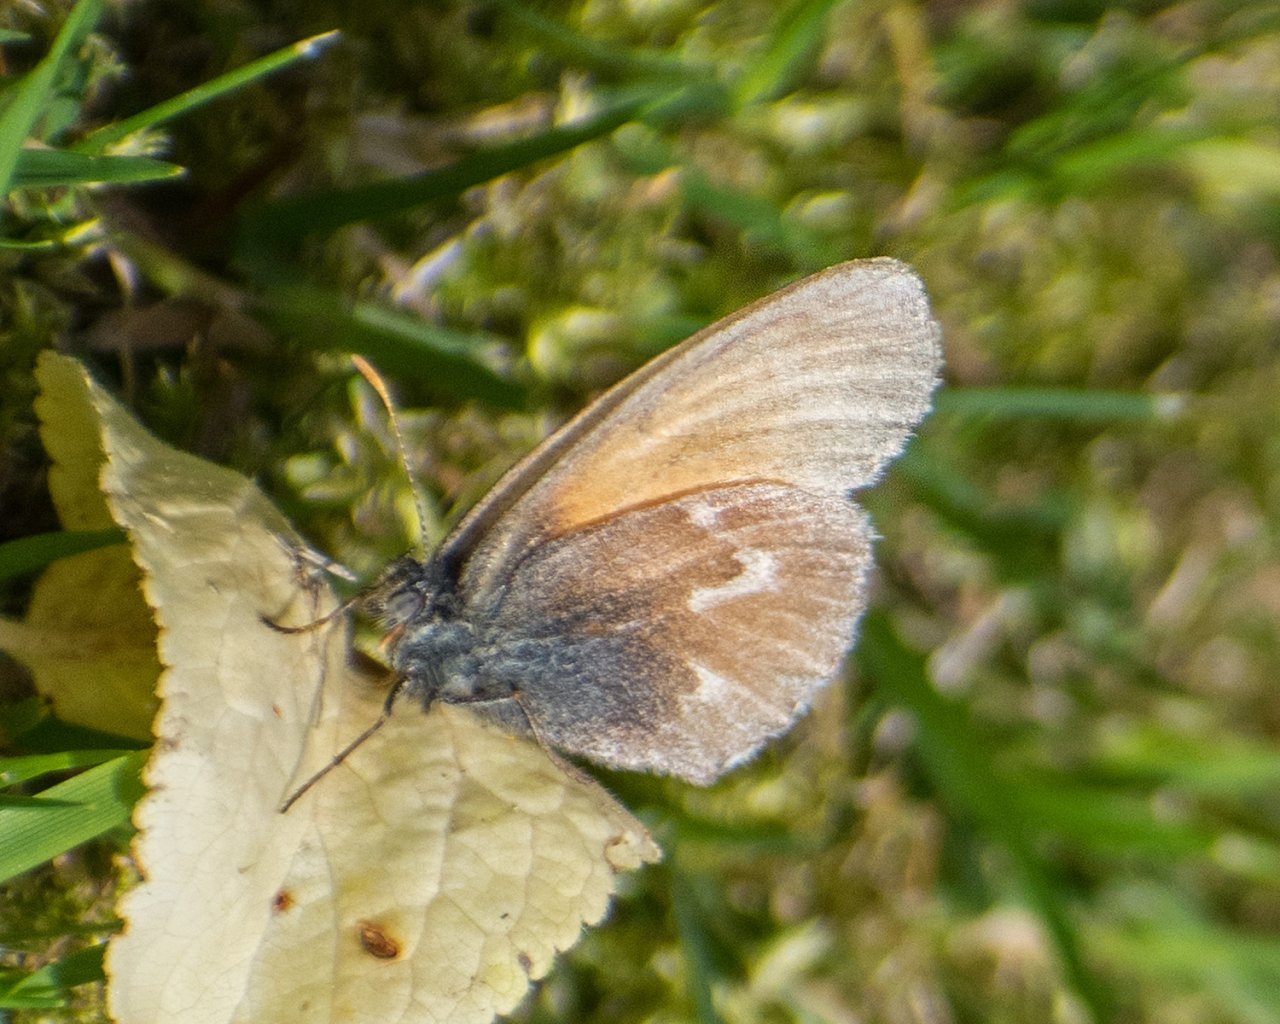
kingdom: Animalia
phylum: Arthropoda
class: Insecta
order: Lepidoptera
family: Nymphalidae
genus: Coenonympha
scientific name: Coenonympha tullia
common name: Large Heath
